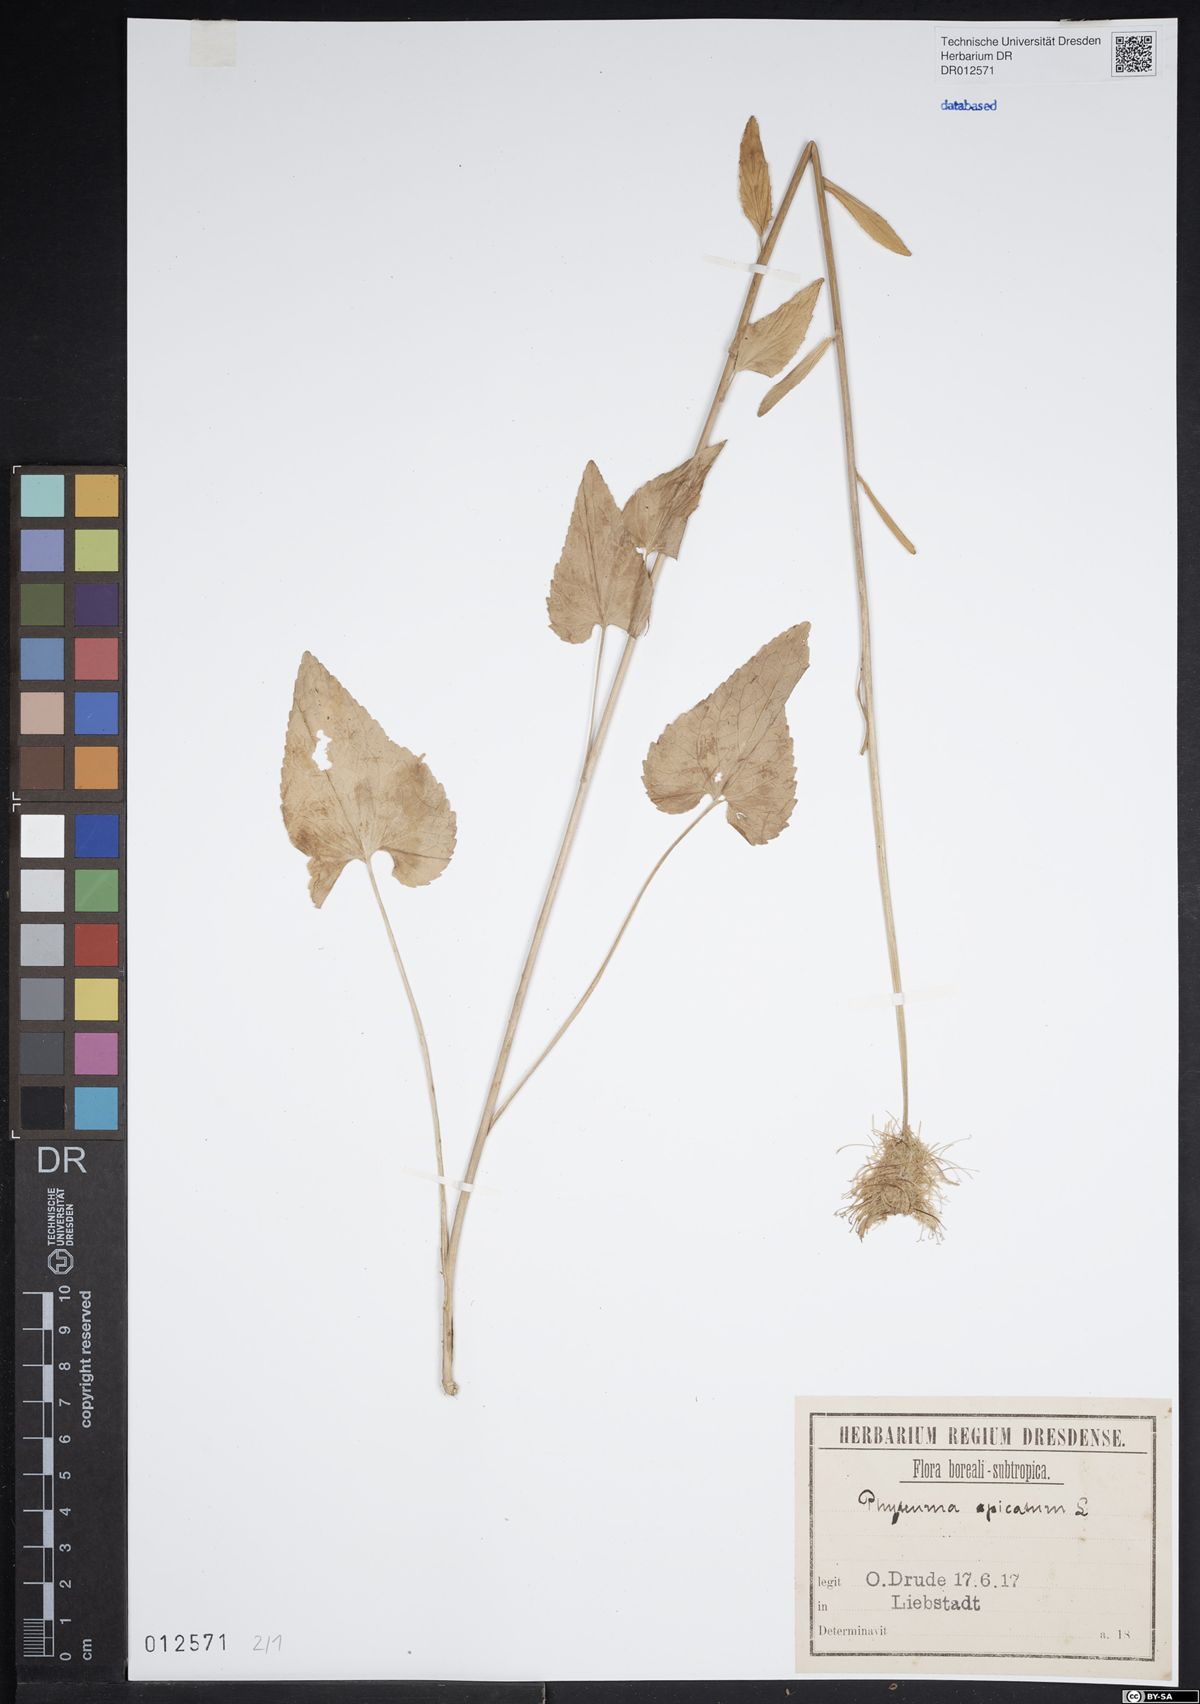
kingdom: Plantae
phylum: Tracheophyta
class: Magnoliopsida
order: Asterales
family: Campanulaceae
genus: Phyteuma
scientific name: Phyteuma spicatum
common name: Spiked rampion
